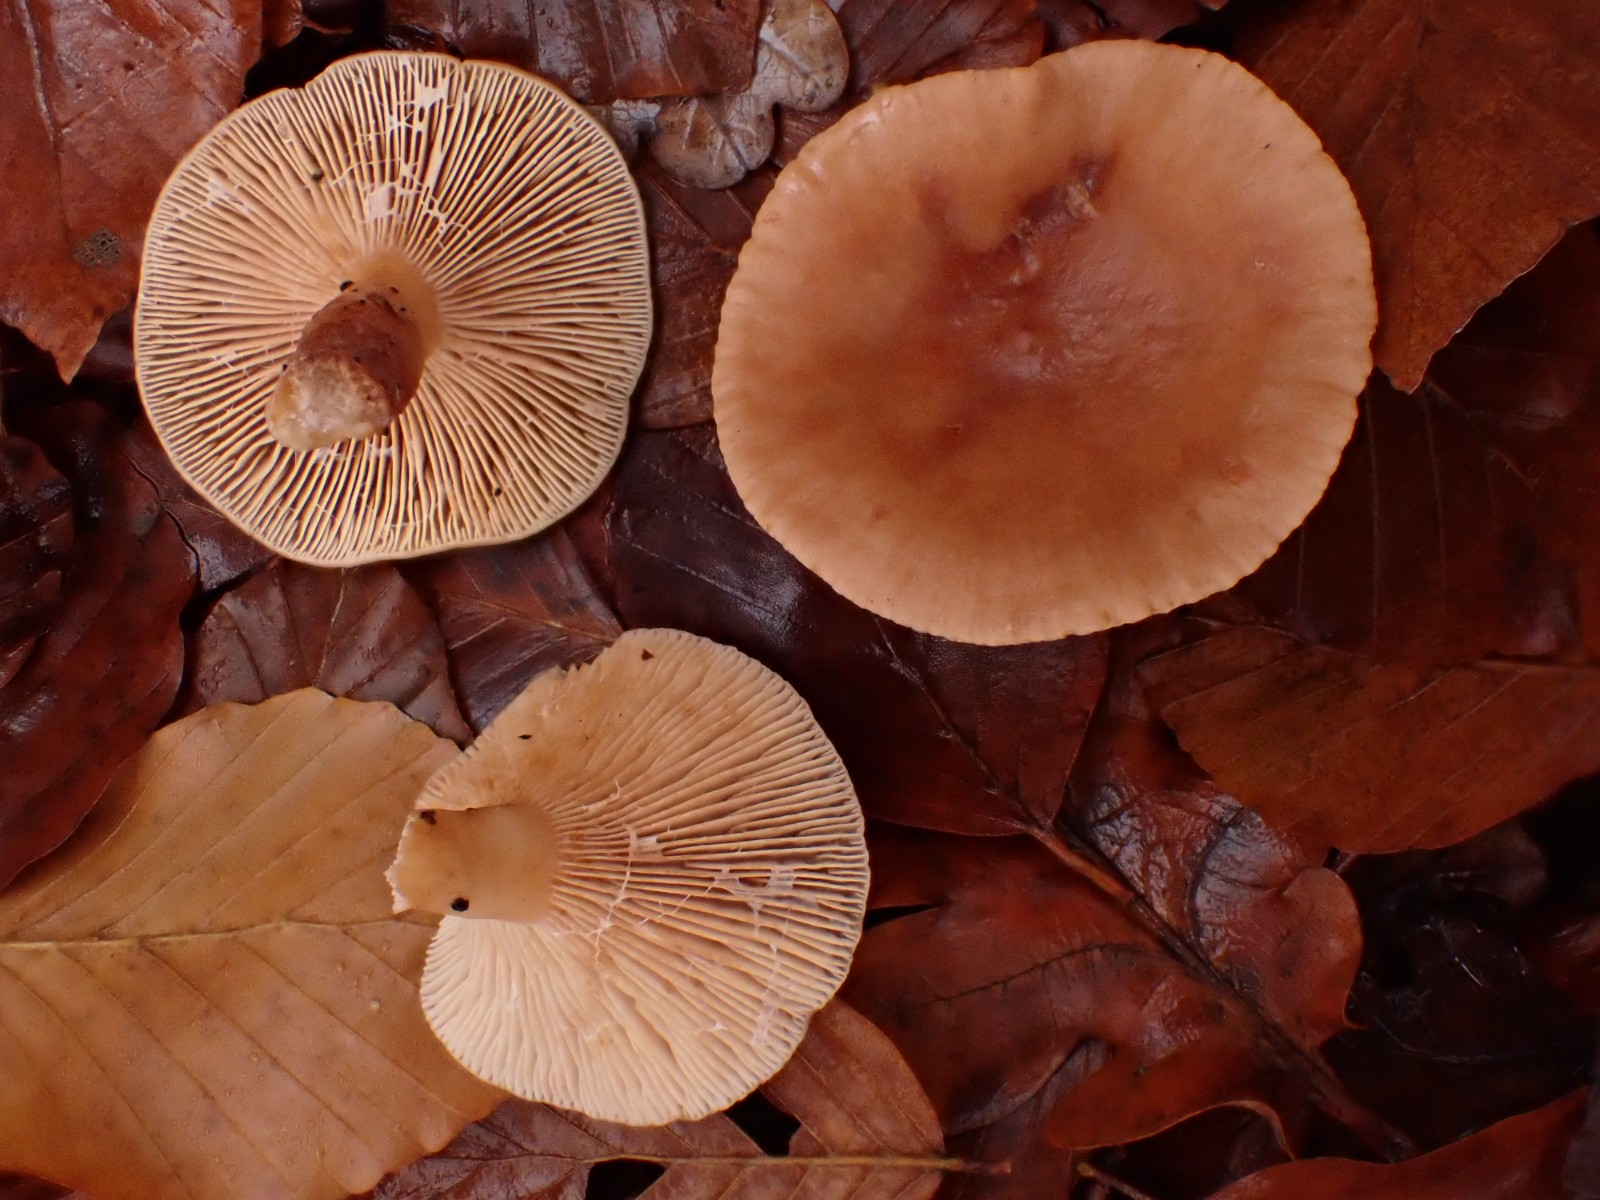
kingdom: Fungi
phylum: Basidiomycota
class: Agaricomycetes
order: Russulales
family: Russulaceae
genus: Lactarius
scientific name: Lactarius subdulcis
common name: sødlig mælkehat
